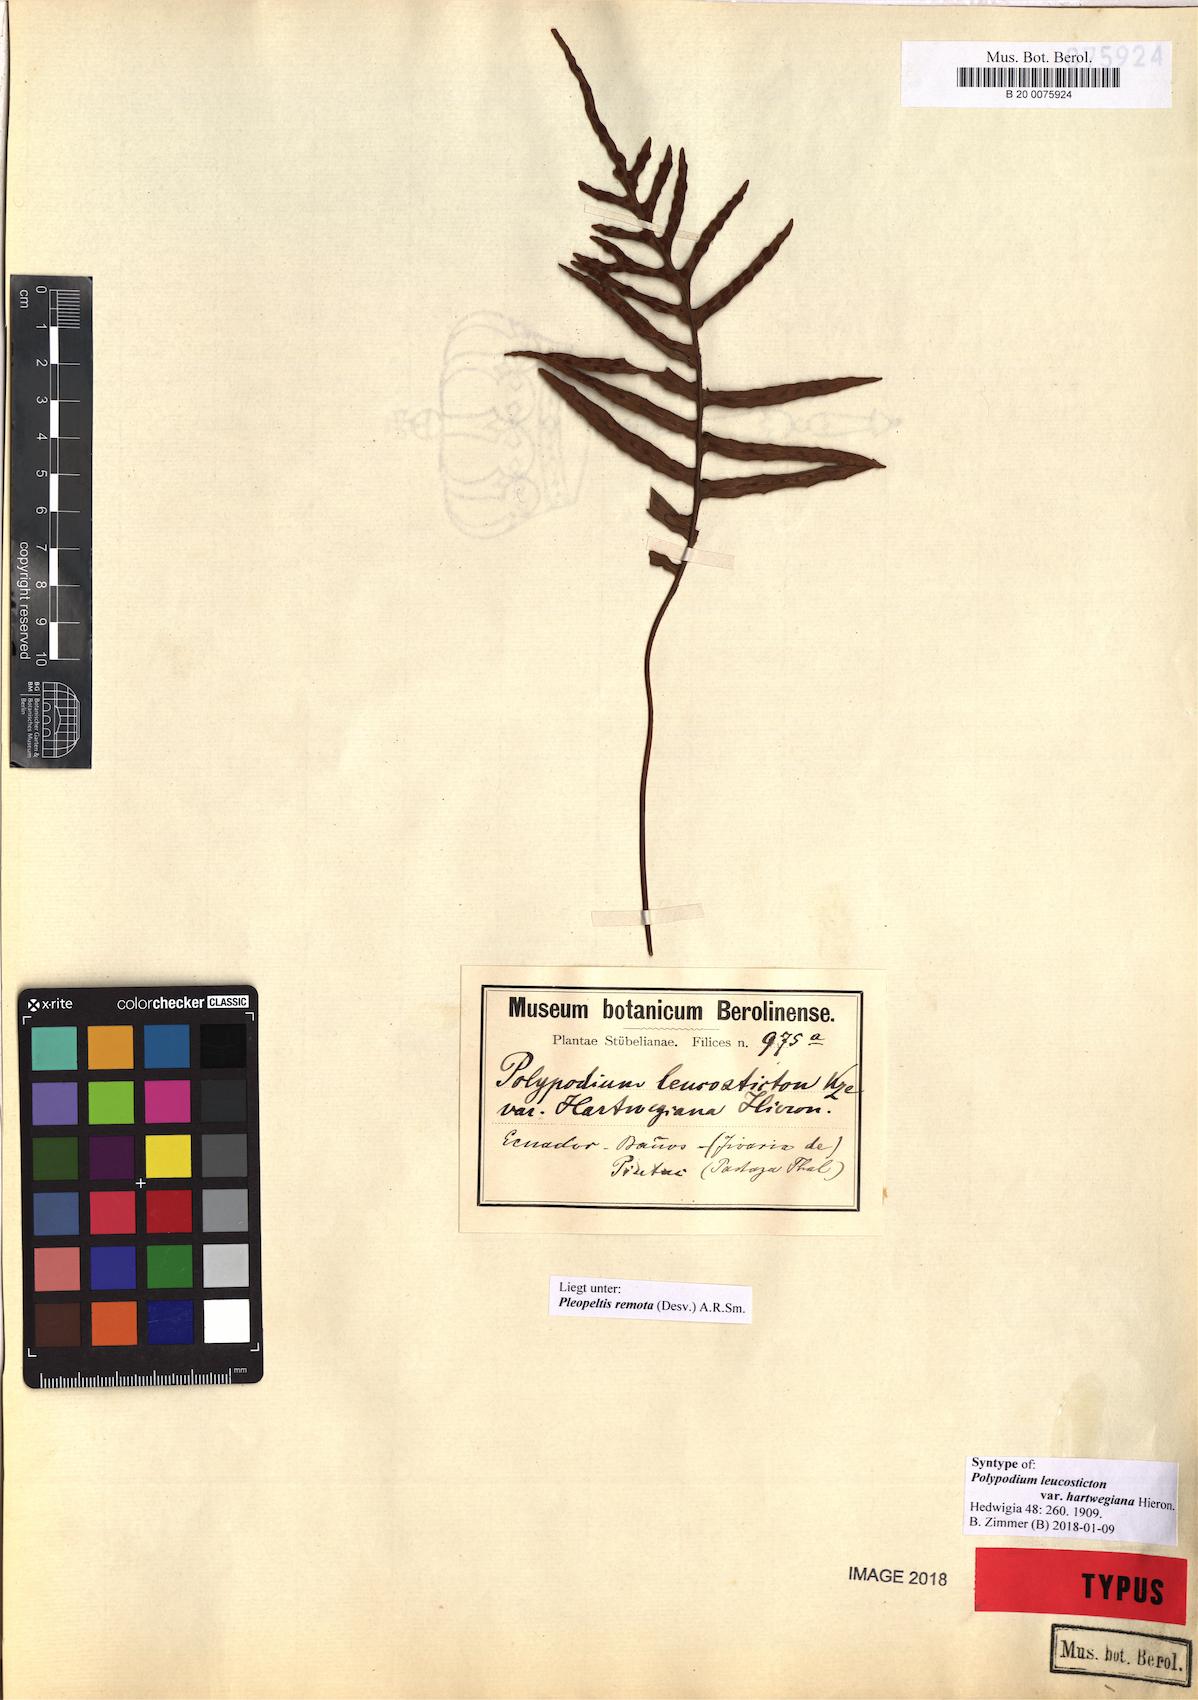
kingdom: Plantae
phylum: Tracheophyta
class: Polypodiopsida
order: Polypodiales
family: Polypodiaceae
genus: Pleopeltis
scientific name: Pleopeltis remota
